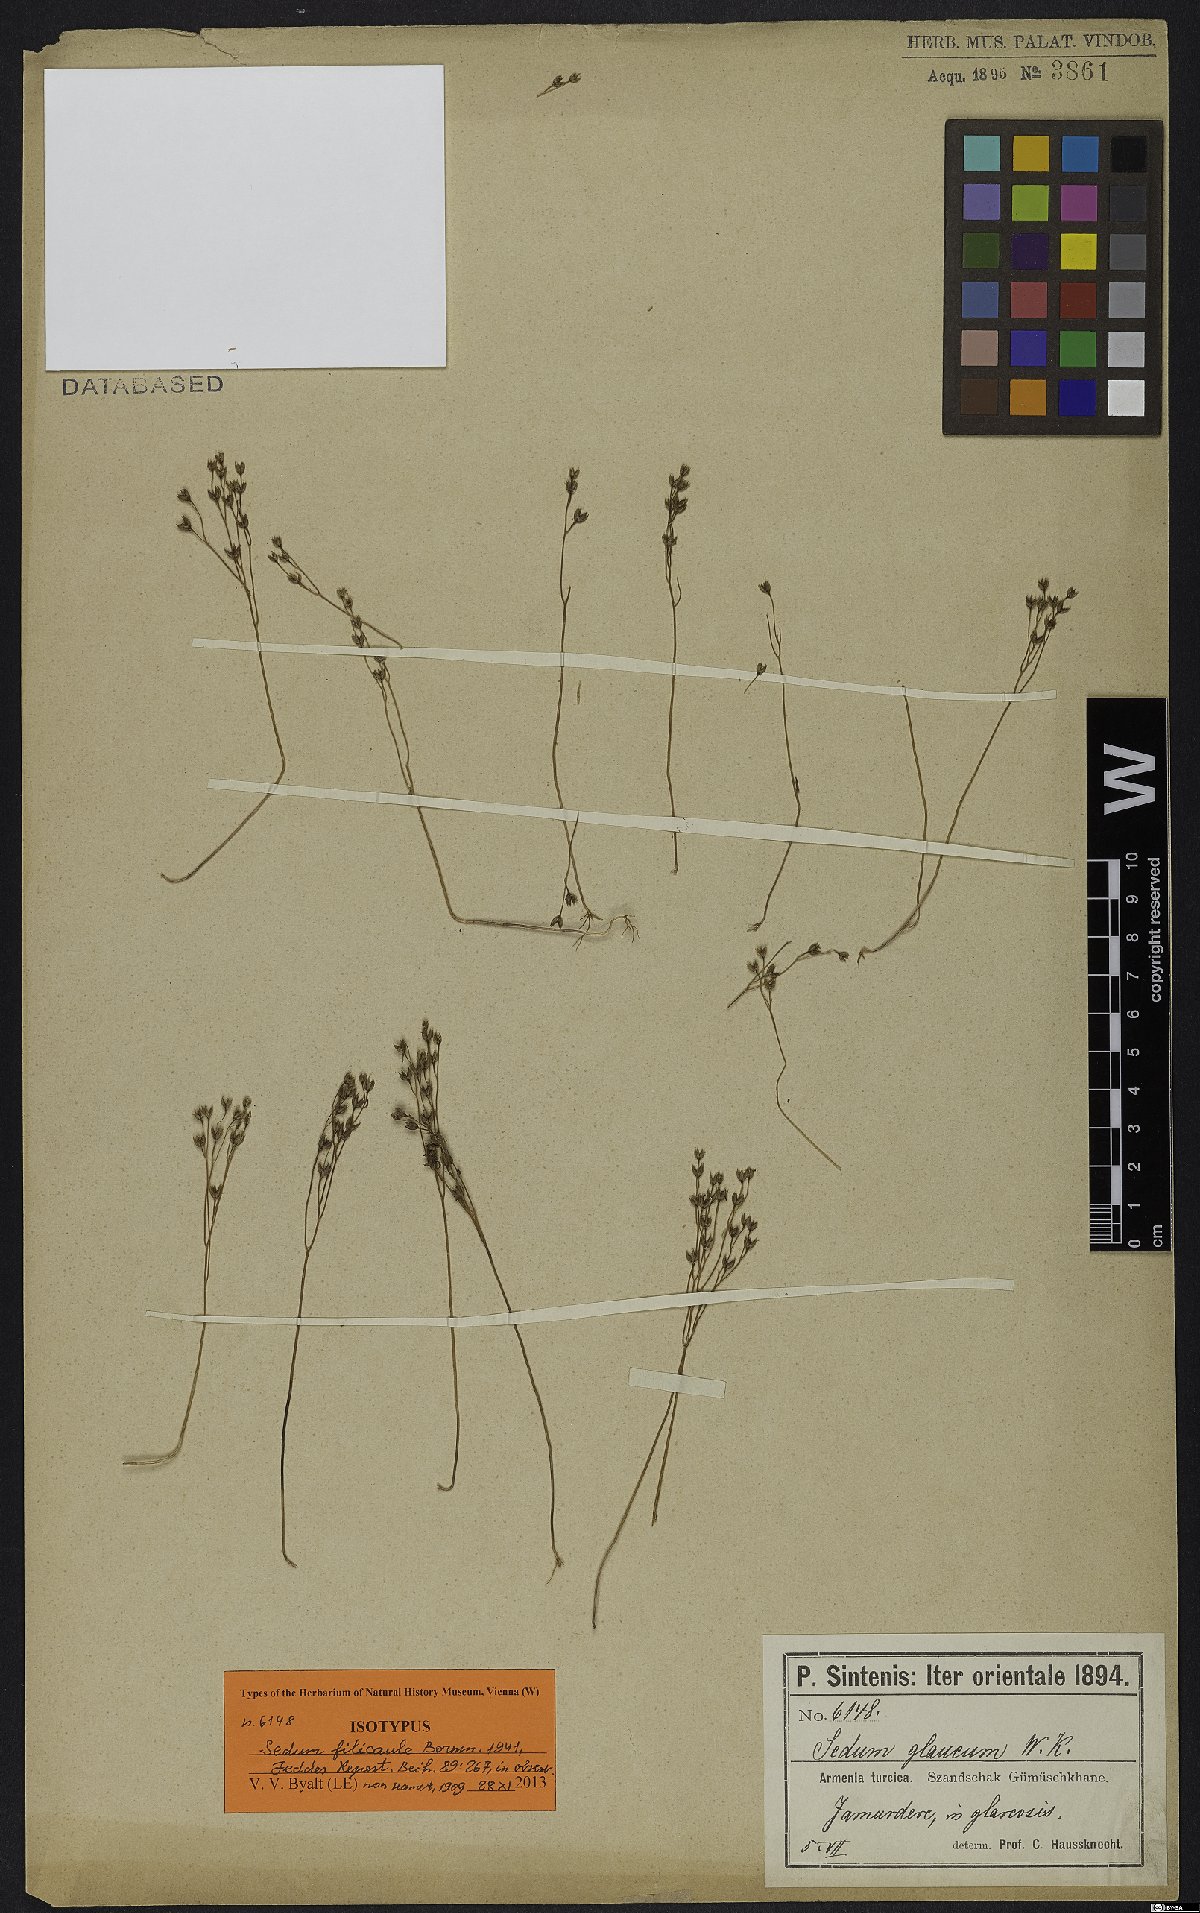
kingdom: Plantae
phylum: Tracheophyta
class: Magnoliopsida
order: Saxifragales
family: Crassulaceae
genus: Sedum
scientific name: Sedum pallidum
